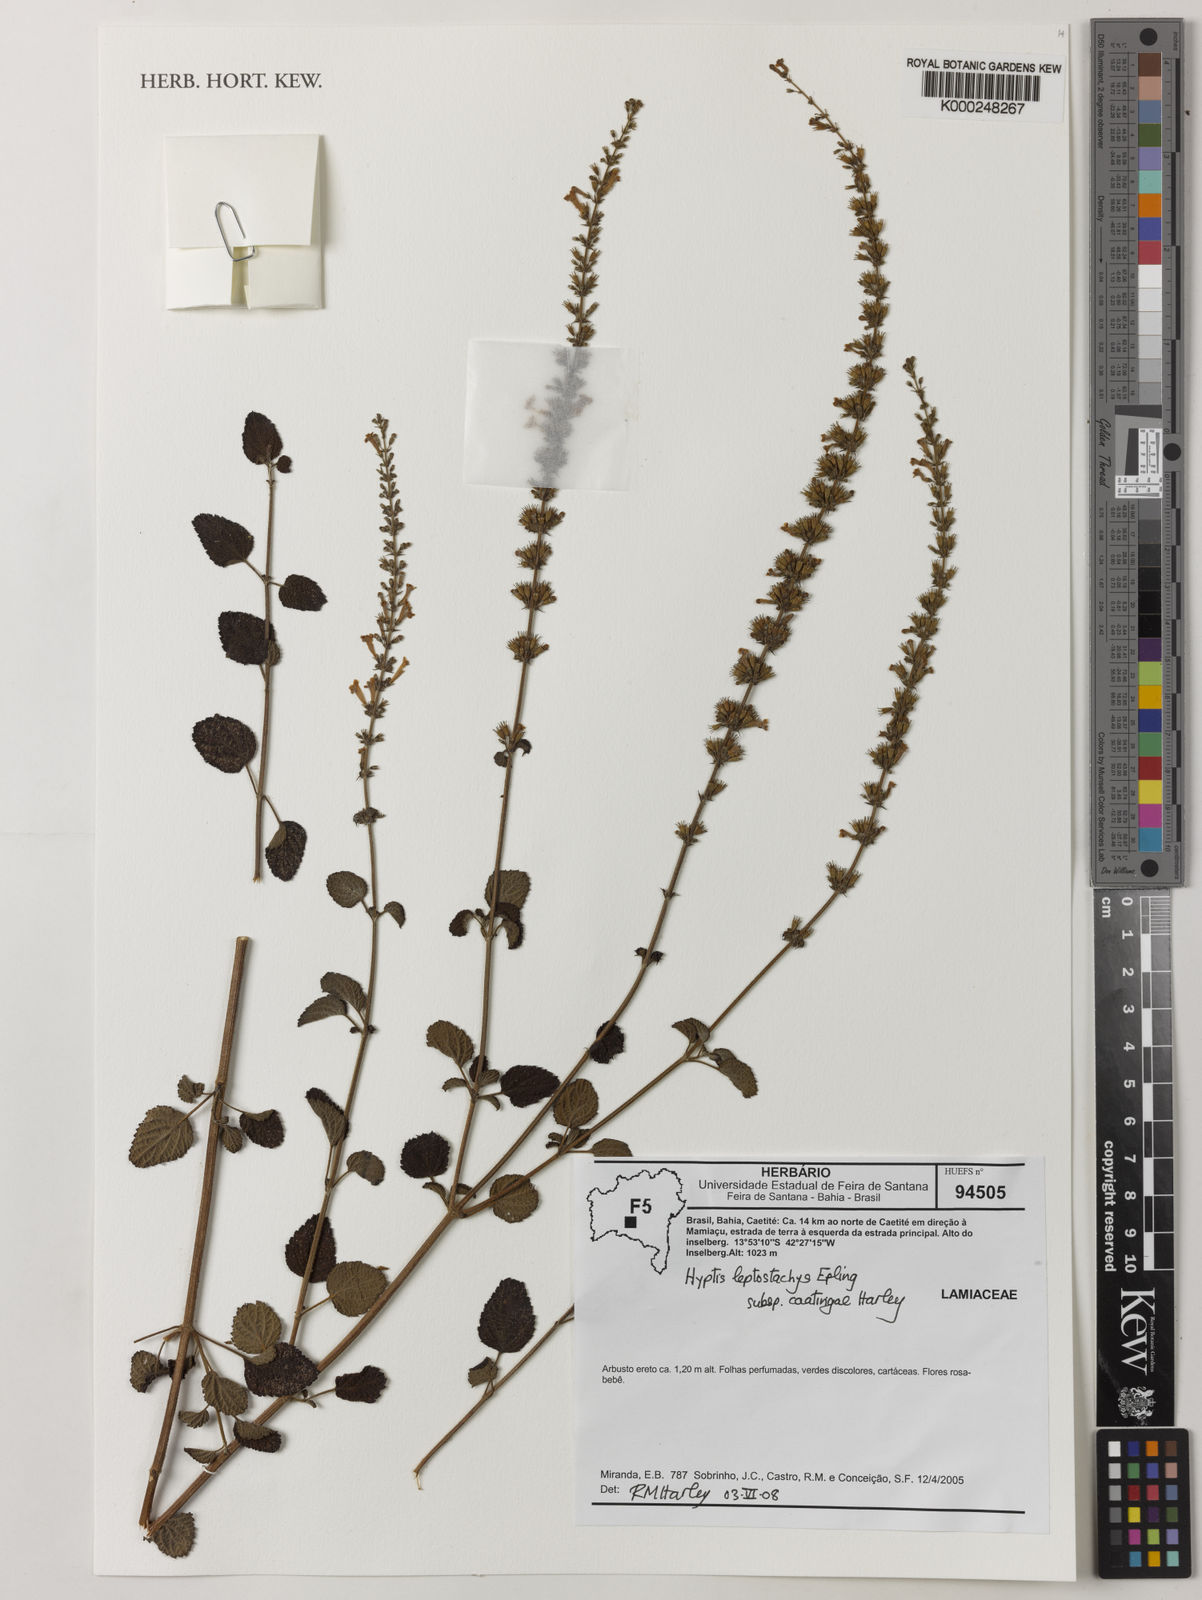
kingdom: Plantae
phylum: Tracheophyta
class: Magnoliopsida
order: Lamiales
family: Lamiaceae
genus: Leptohyptis
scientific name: Leptohyptis leptostachys
